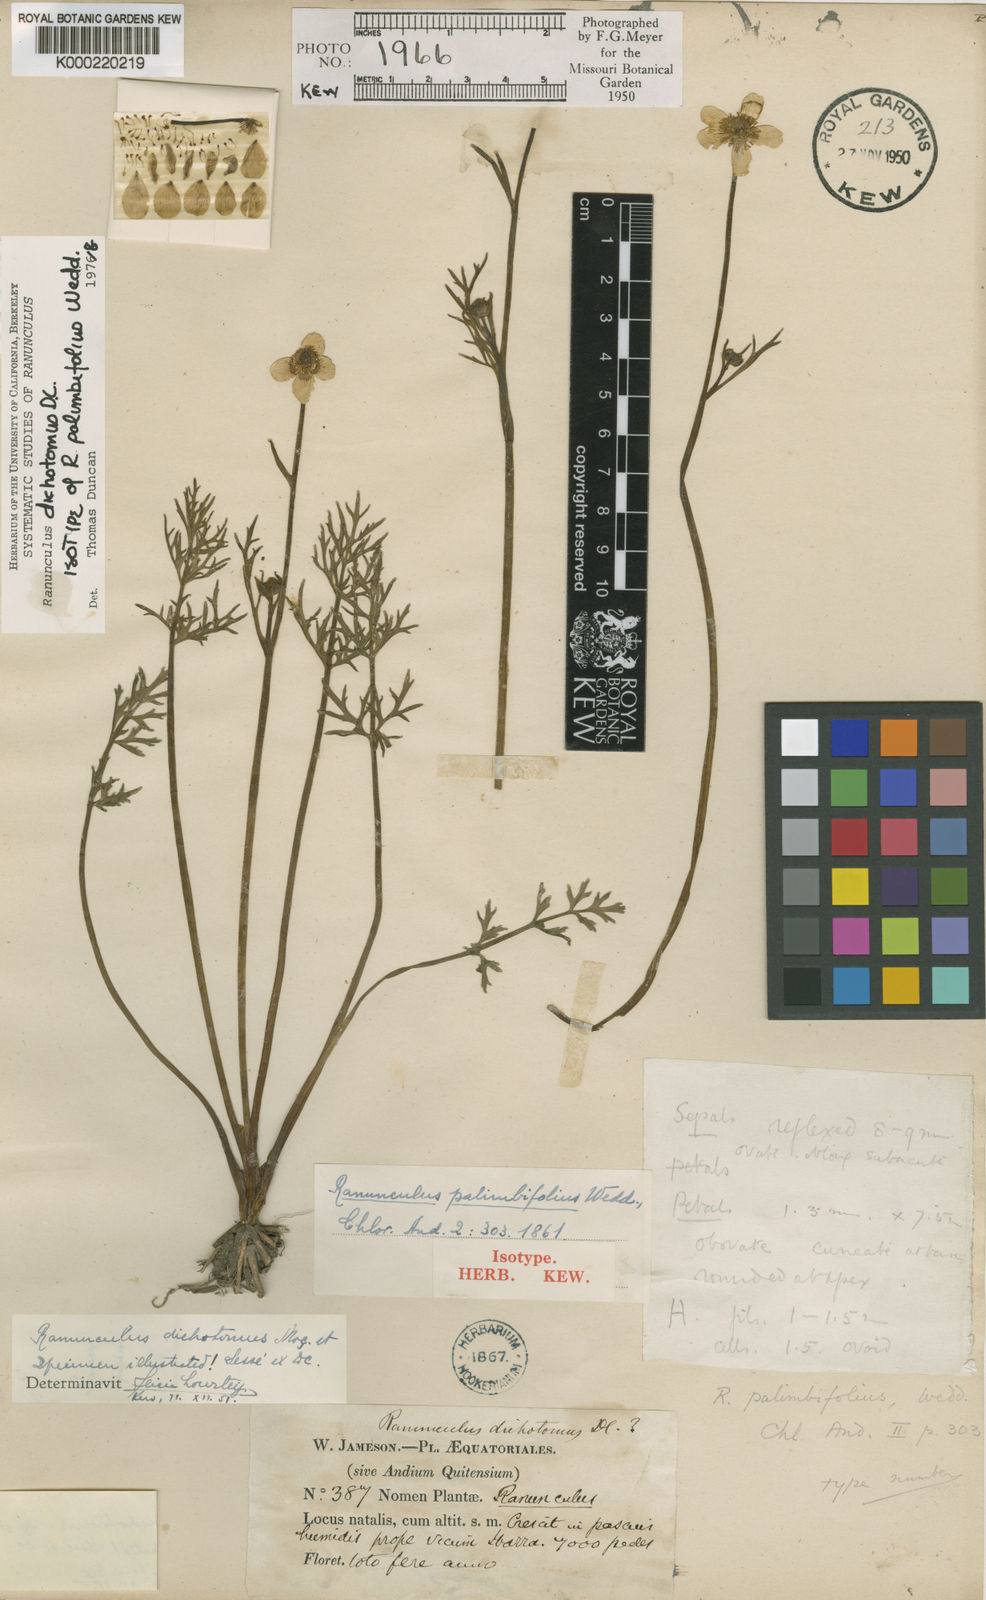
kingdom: Plantae
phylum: Tracheophyta
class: Magnoliopsida
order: Ranunculales
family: Ranunculaceae
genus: Ranunculus
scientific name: Ranunculus
